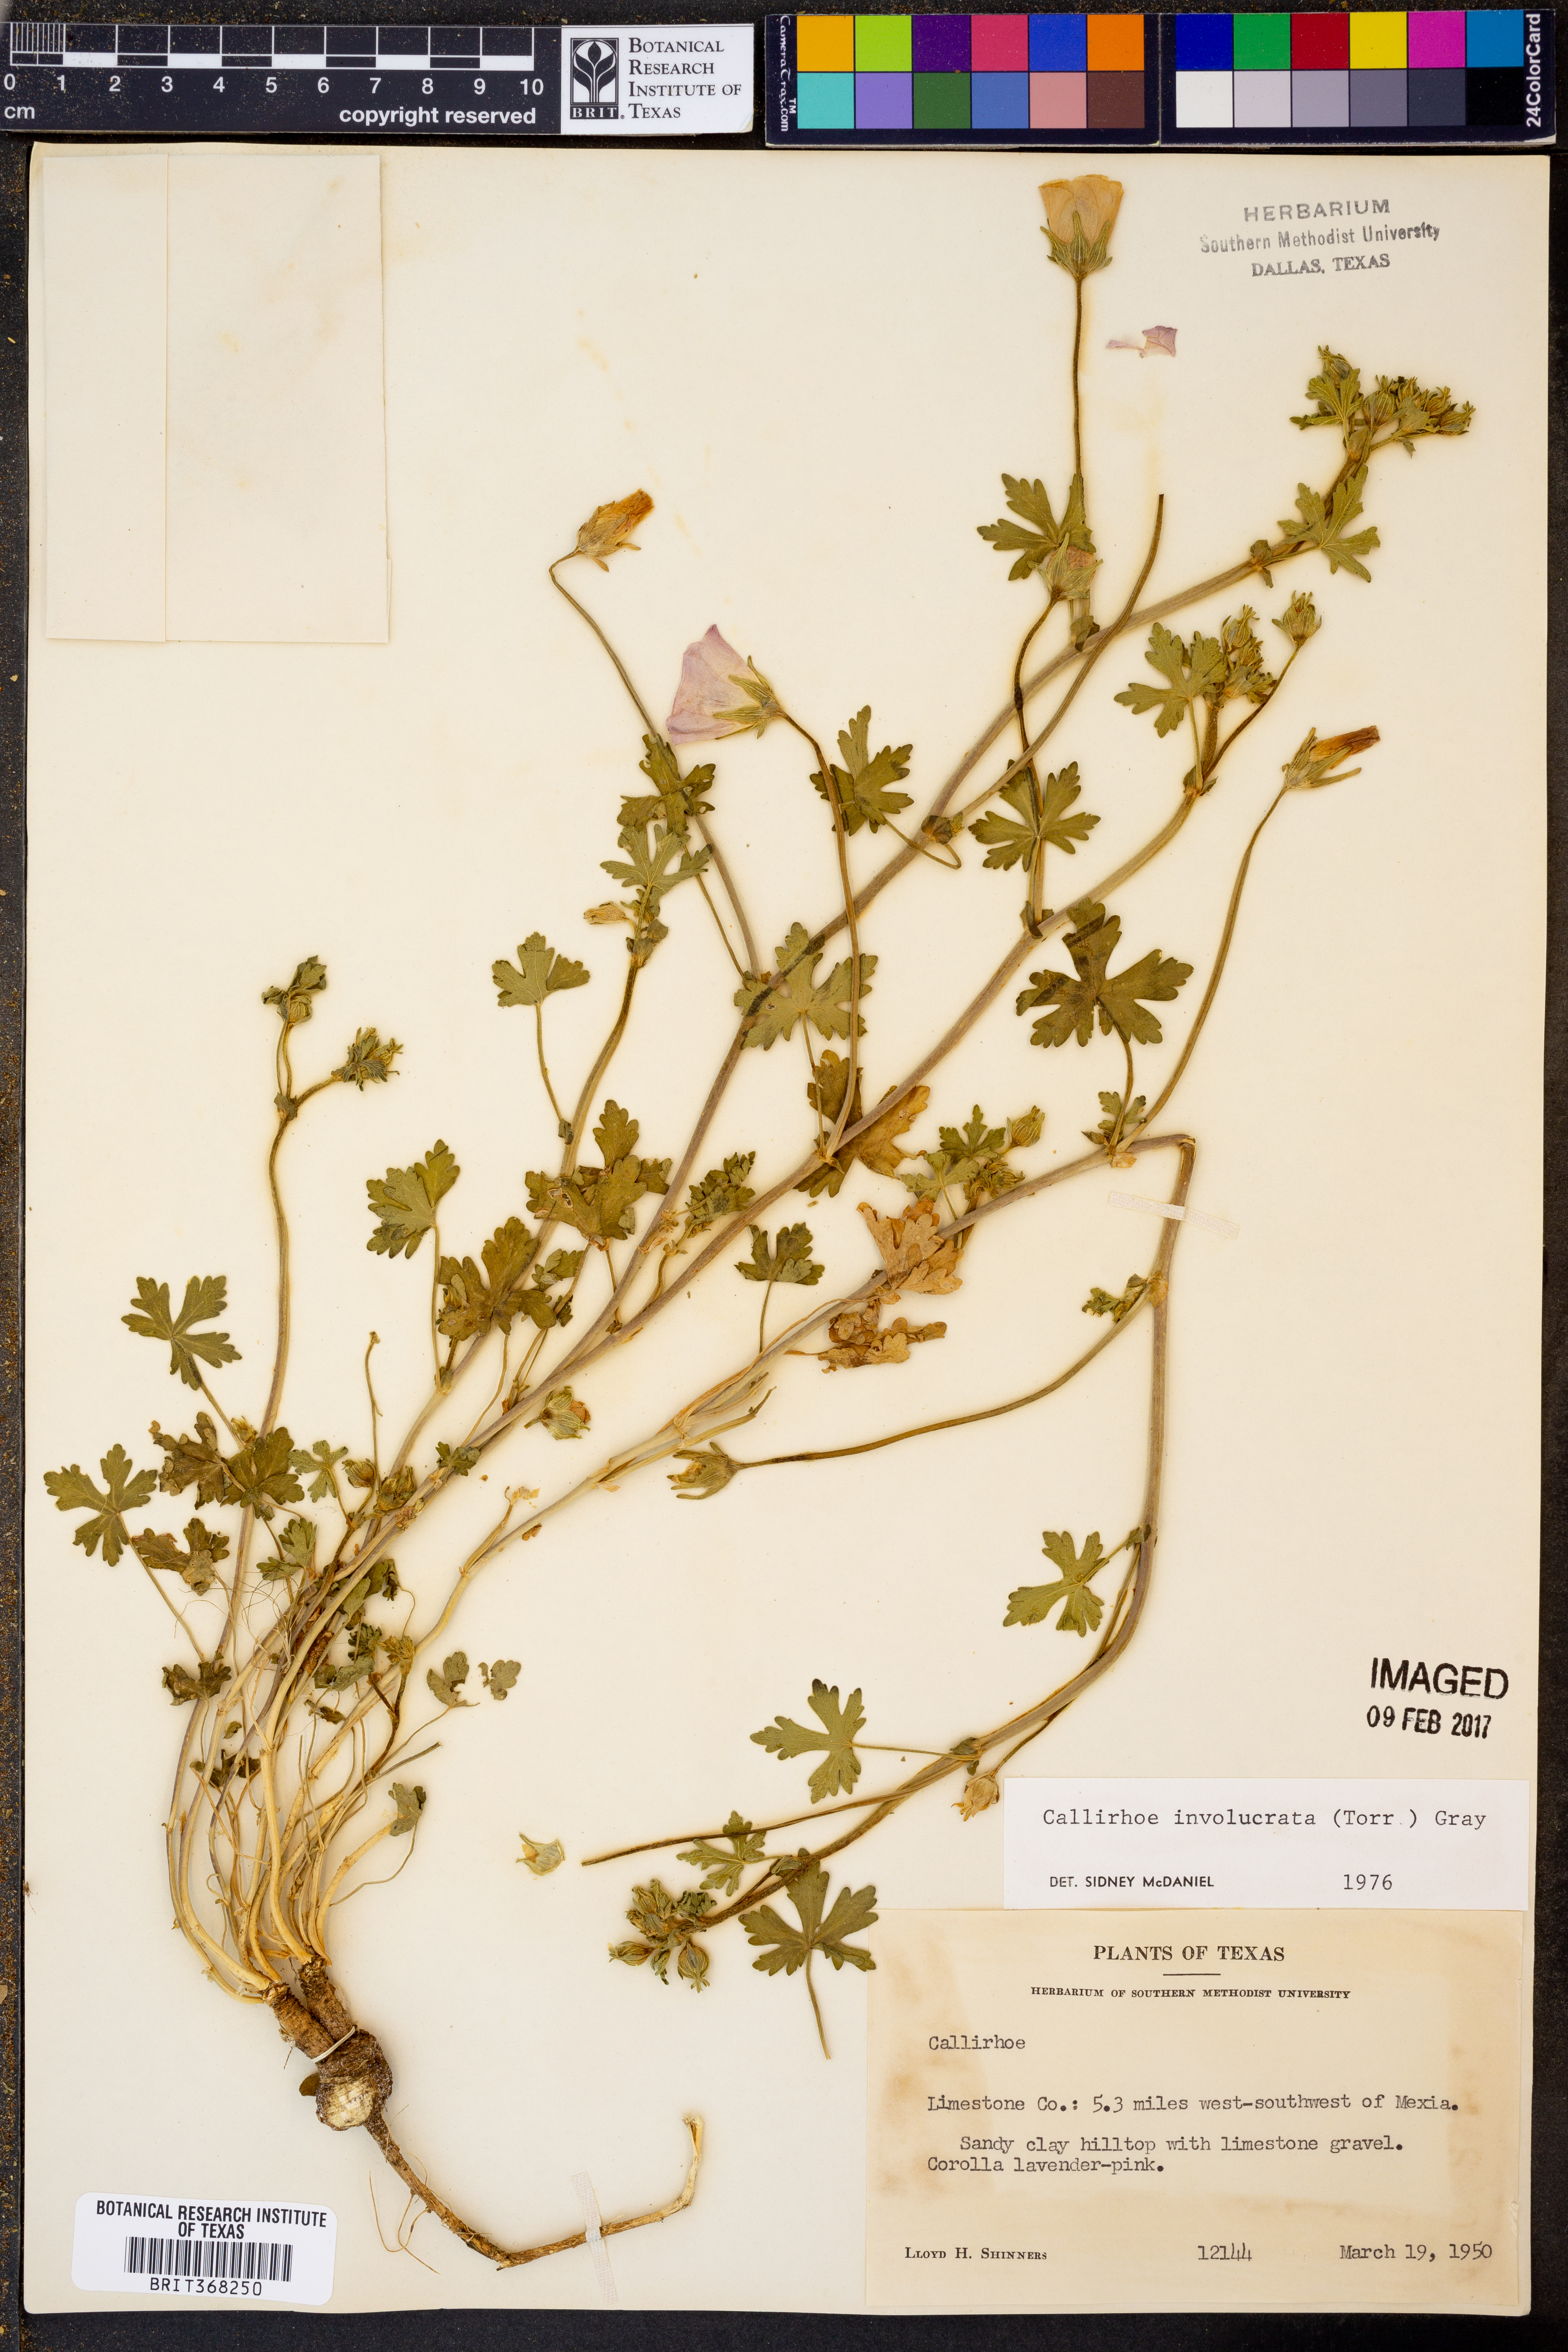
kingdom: Plantae
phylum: Tracheophyta
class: Magnoliopsida
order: Malvales
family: Malvaceae
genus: Callirhoe
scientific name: Callirhoe involucrata
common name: Purple poppy-mallow
